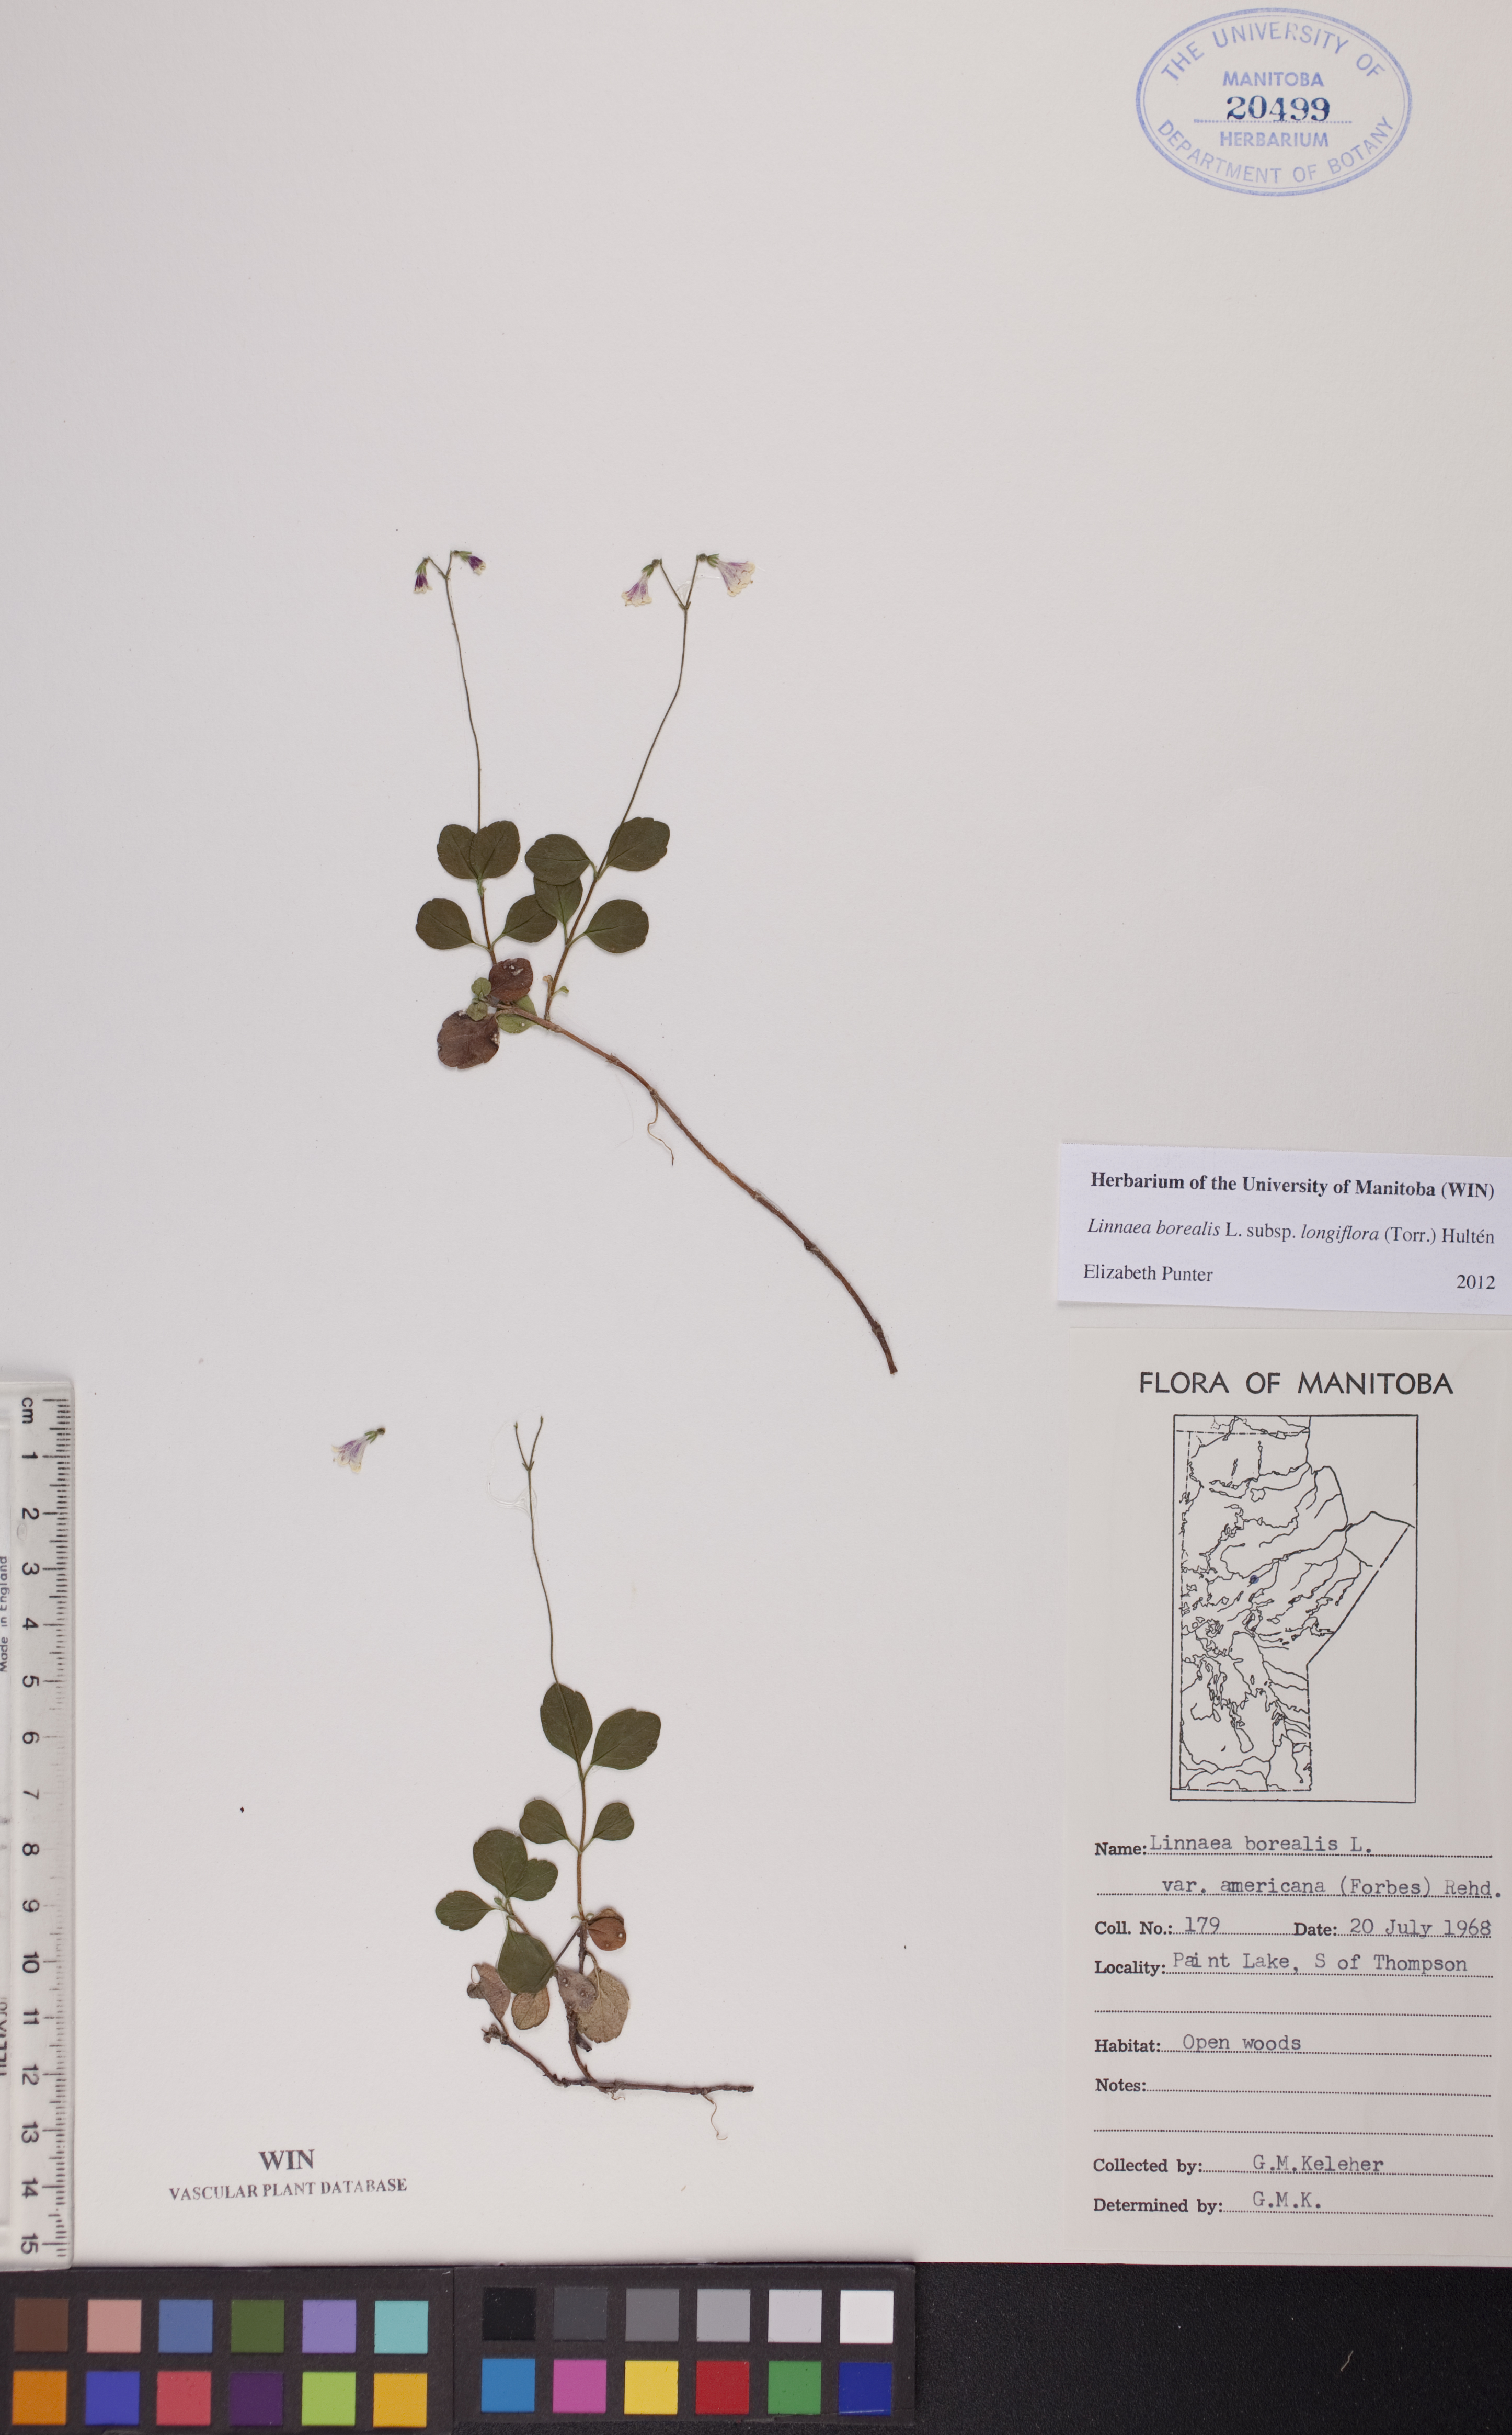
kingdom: Plantae
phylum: Tracheophyta
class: Magnoliopsida
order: Dipsacales
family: Caprifoliaceae
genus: Linnaea
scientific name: Linnaea borealis
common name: Twinflower
